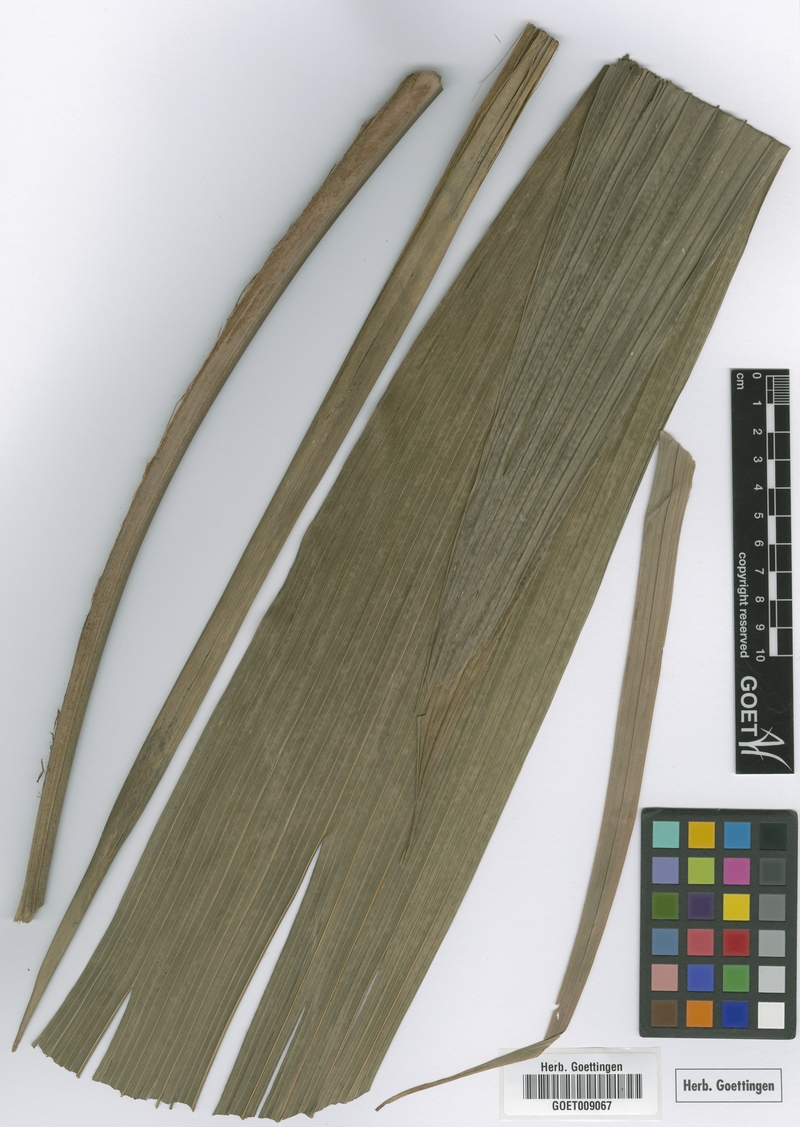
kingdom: Plantae
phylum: Tracheophyta
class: Liliopsida
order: Arecales
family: Arecaceae
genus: Calyptrogyne
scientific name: Calyptrogyne ghiesbreghtiana
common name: Coligallo
